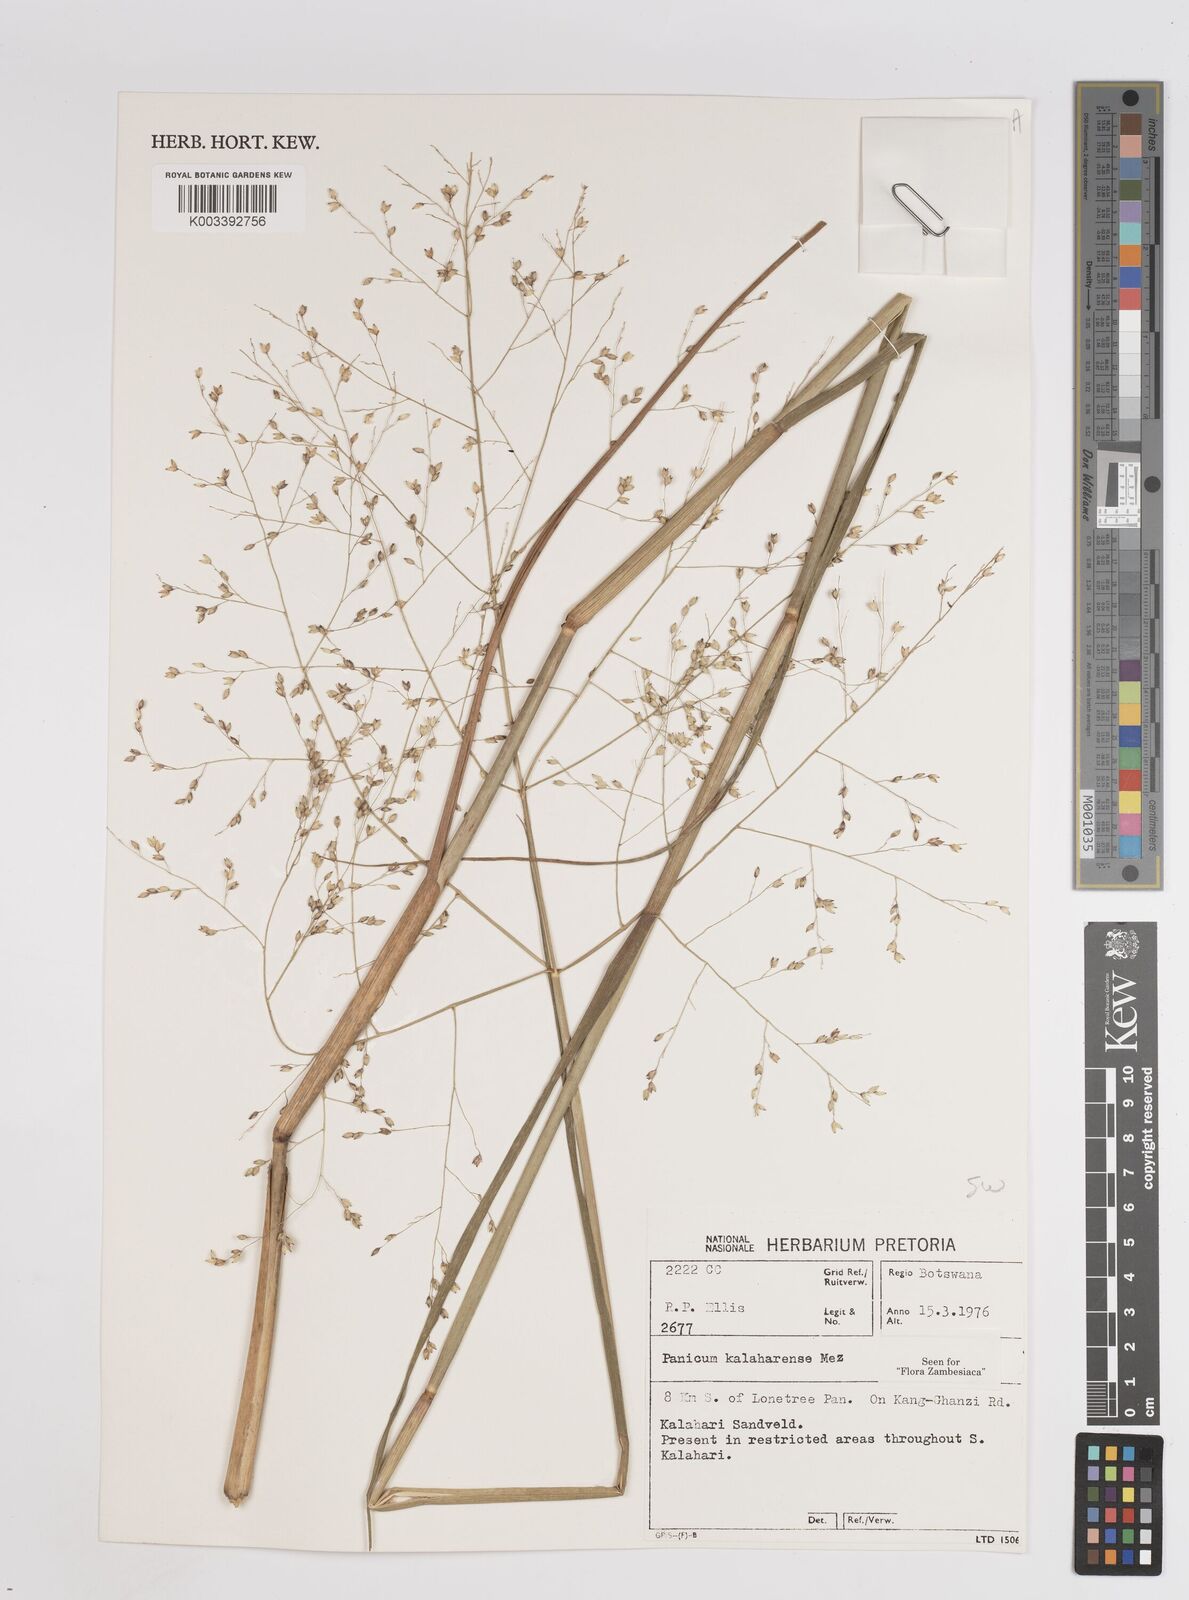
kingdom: Plantae
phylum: Tracheophyta
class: Liliopsida
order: Poales
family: Poaceae
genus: Panicum
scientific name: Panicum kalaharense
